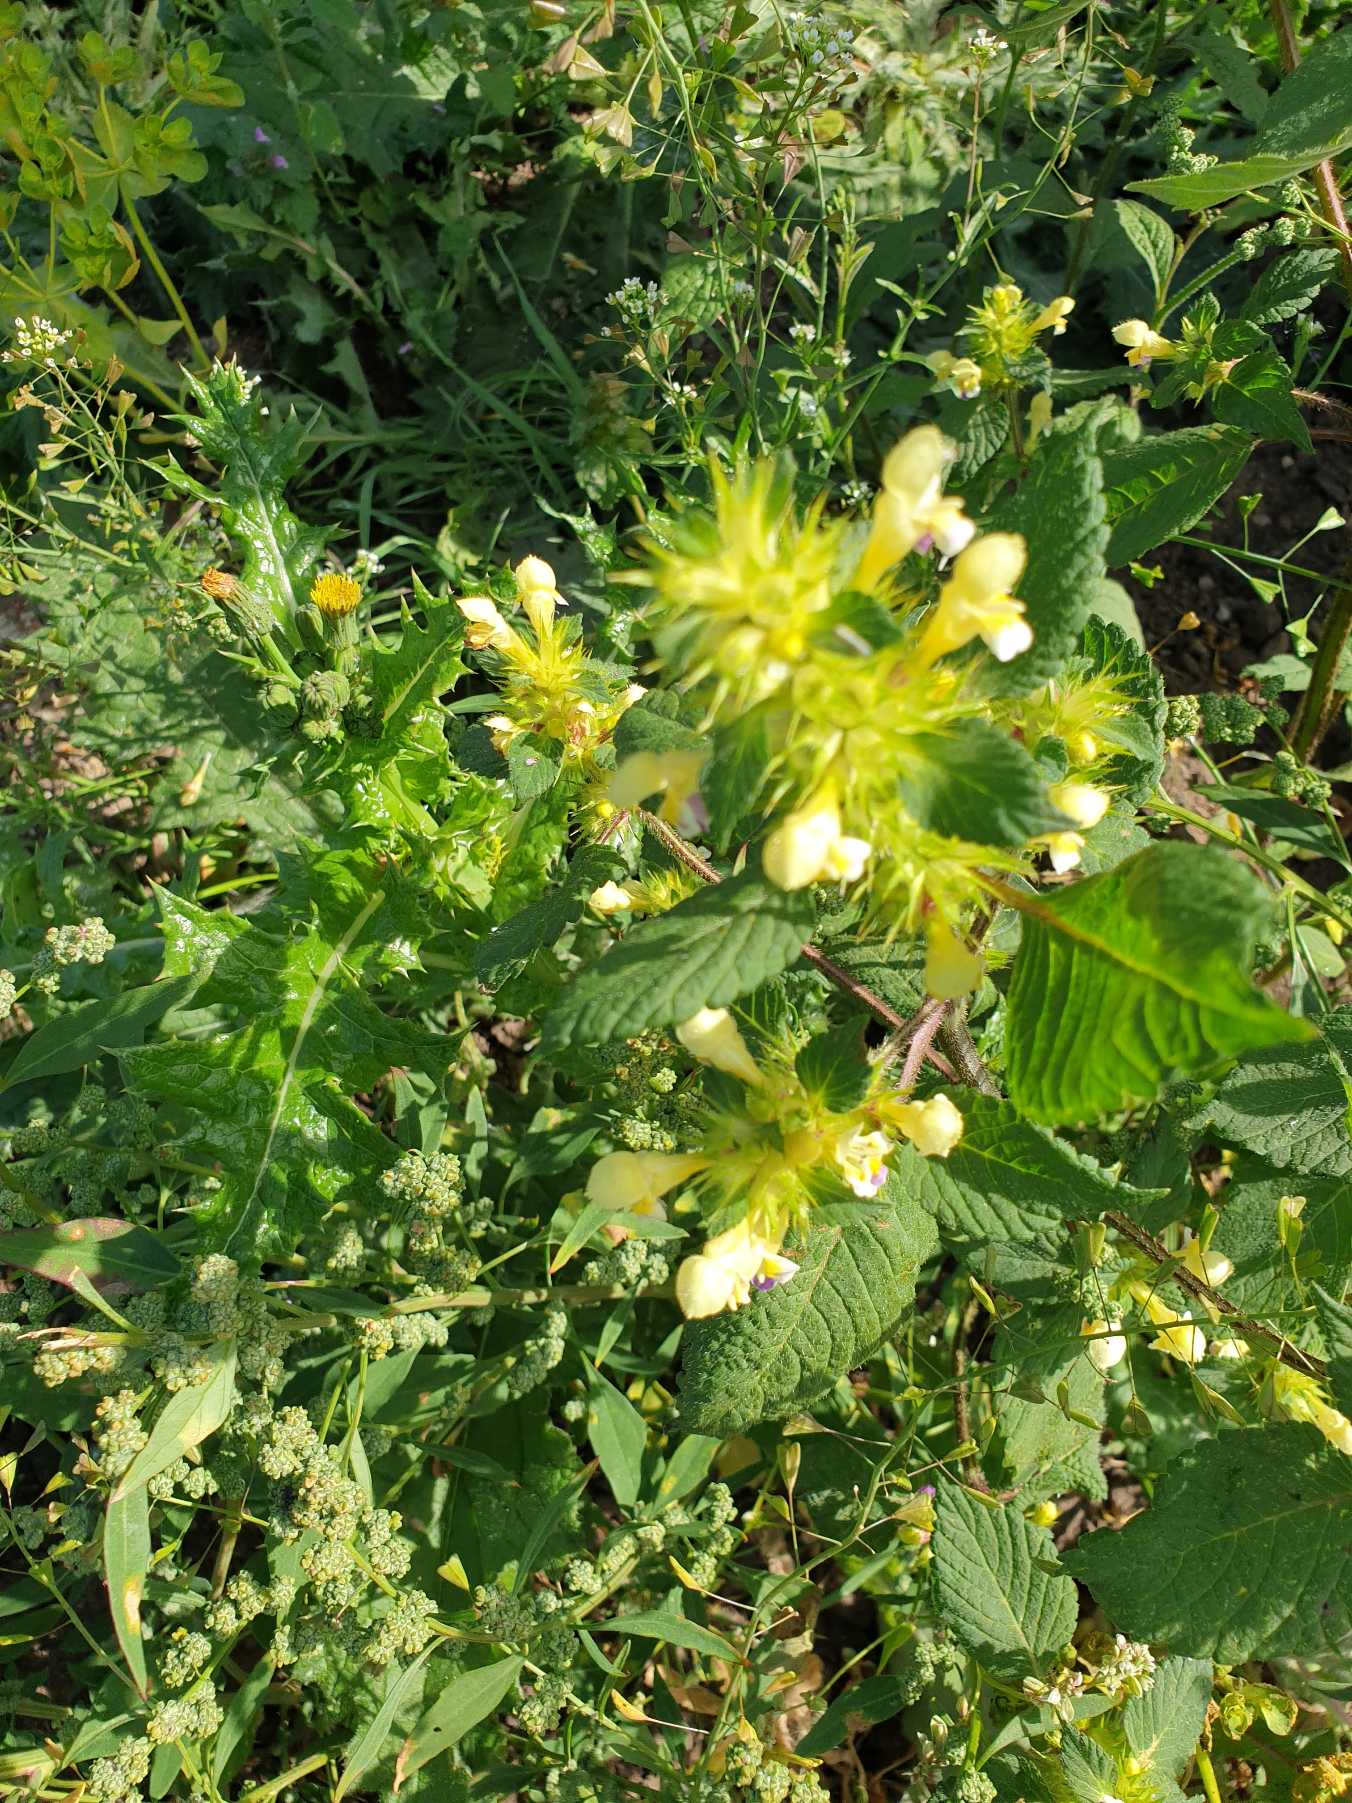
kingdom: Plantae
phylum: Tracheophyta
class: Magnoliopsida
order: Lamiales
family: Lamiaceae
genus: Galeopsis
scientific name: Galeopsis speciosa
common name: Hamp-hanekro
